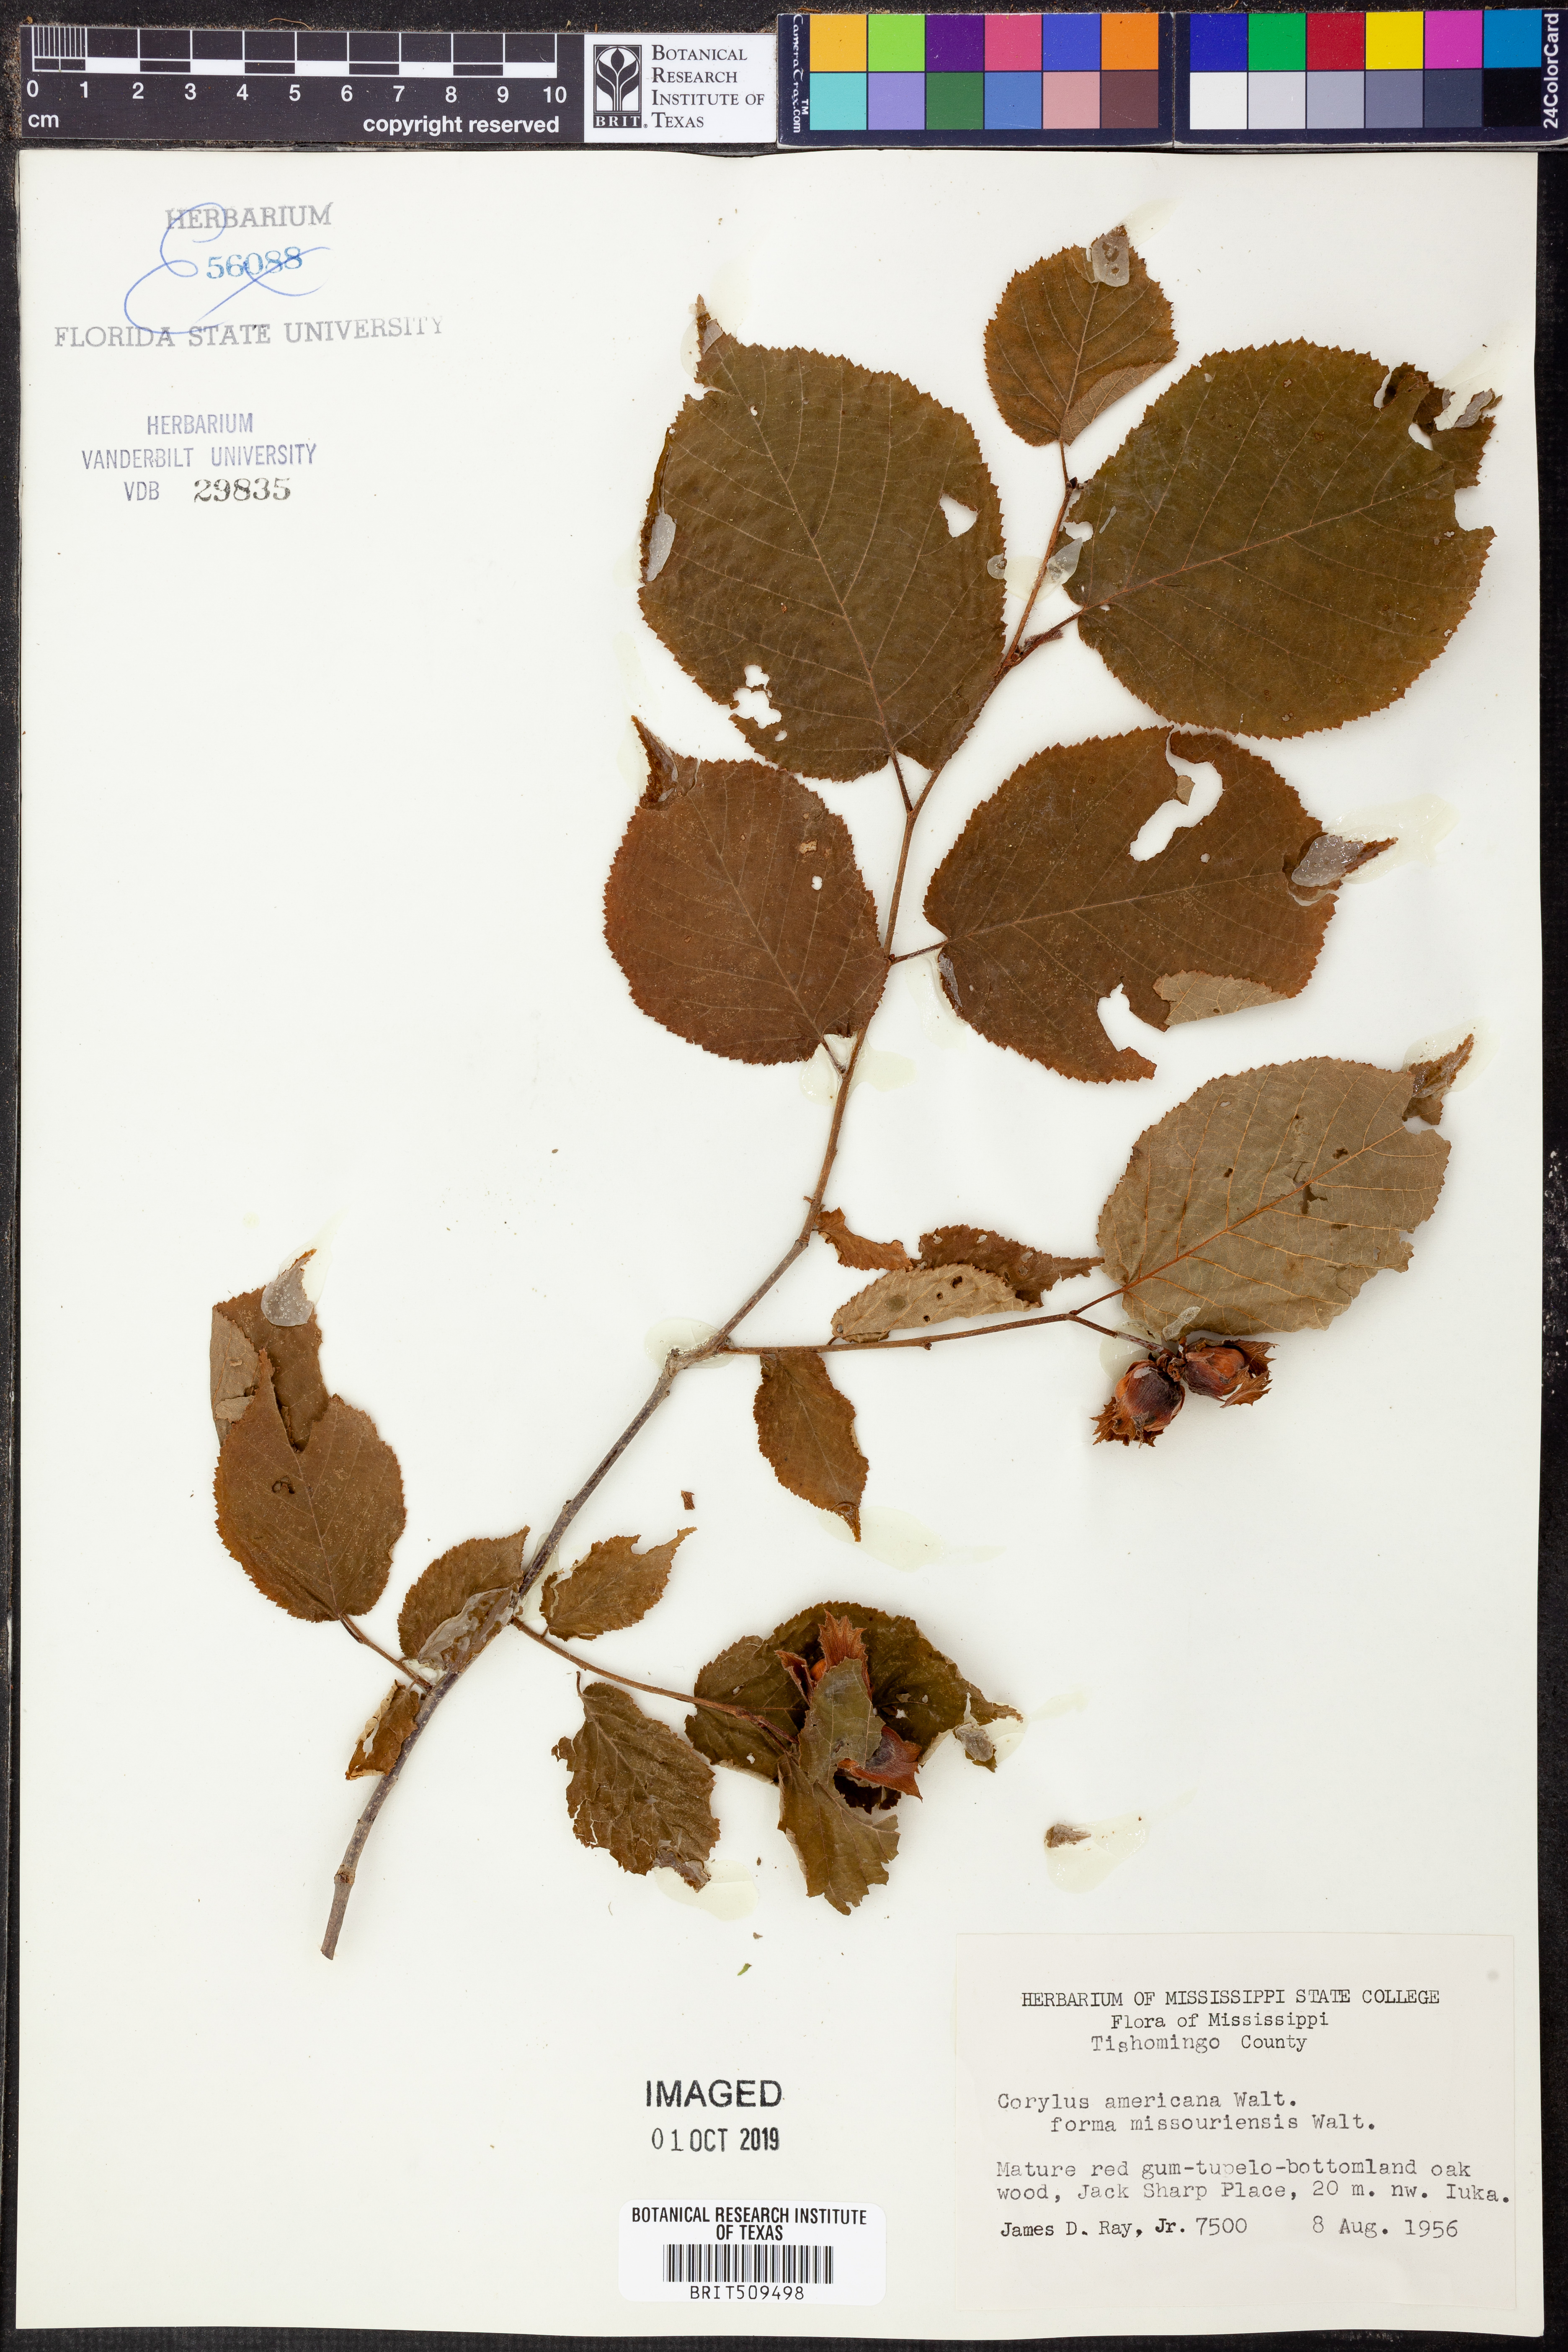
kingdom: Plantae
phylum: Tracheophyta
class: Magnoliopsida
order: Fagales
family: Betulaceae
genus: Corylus
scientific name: Corylus americana
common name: American hazel
